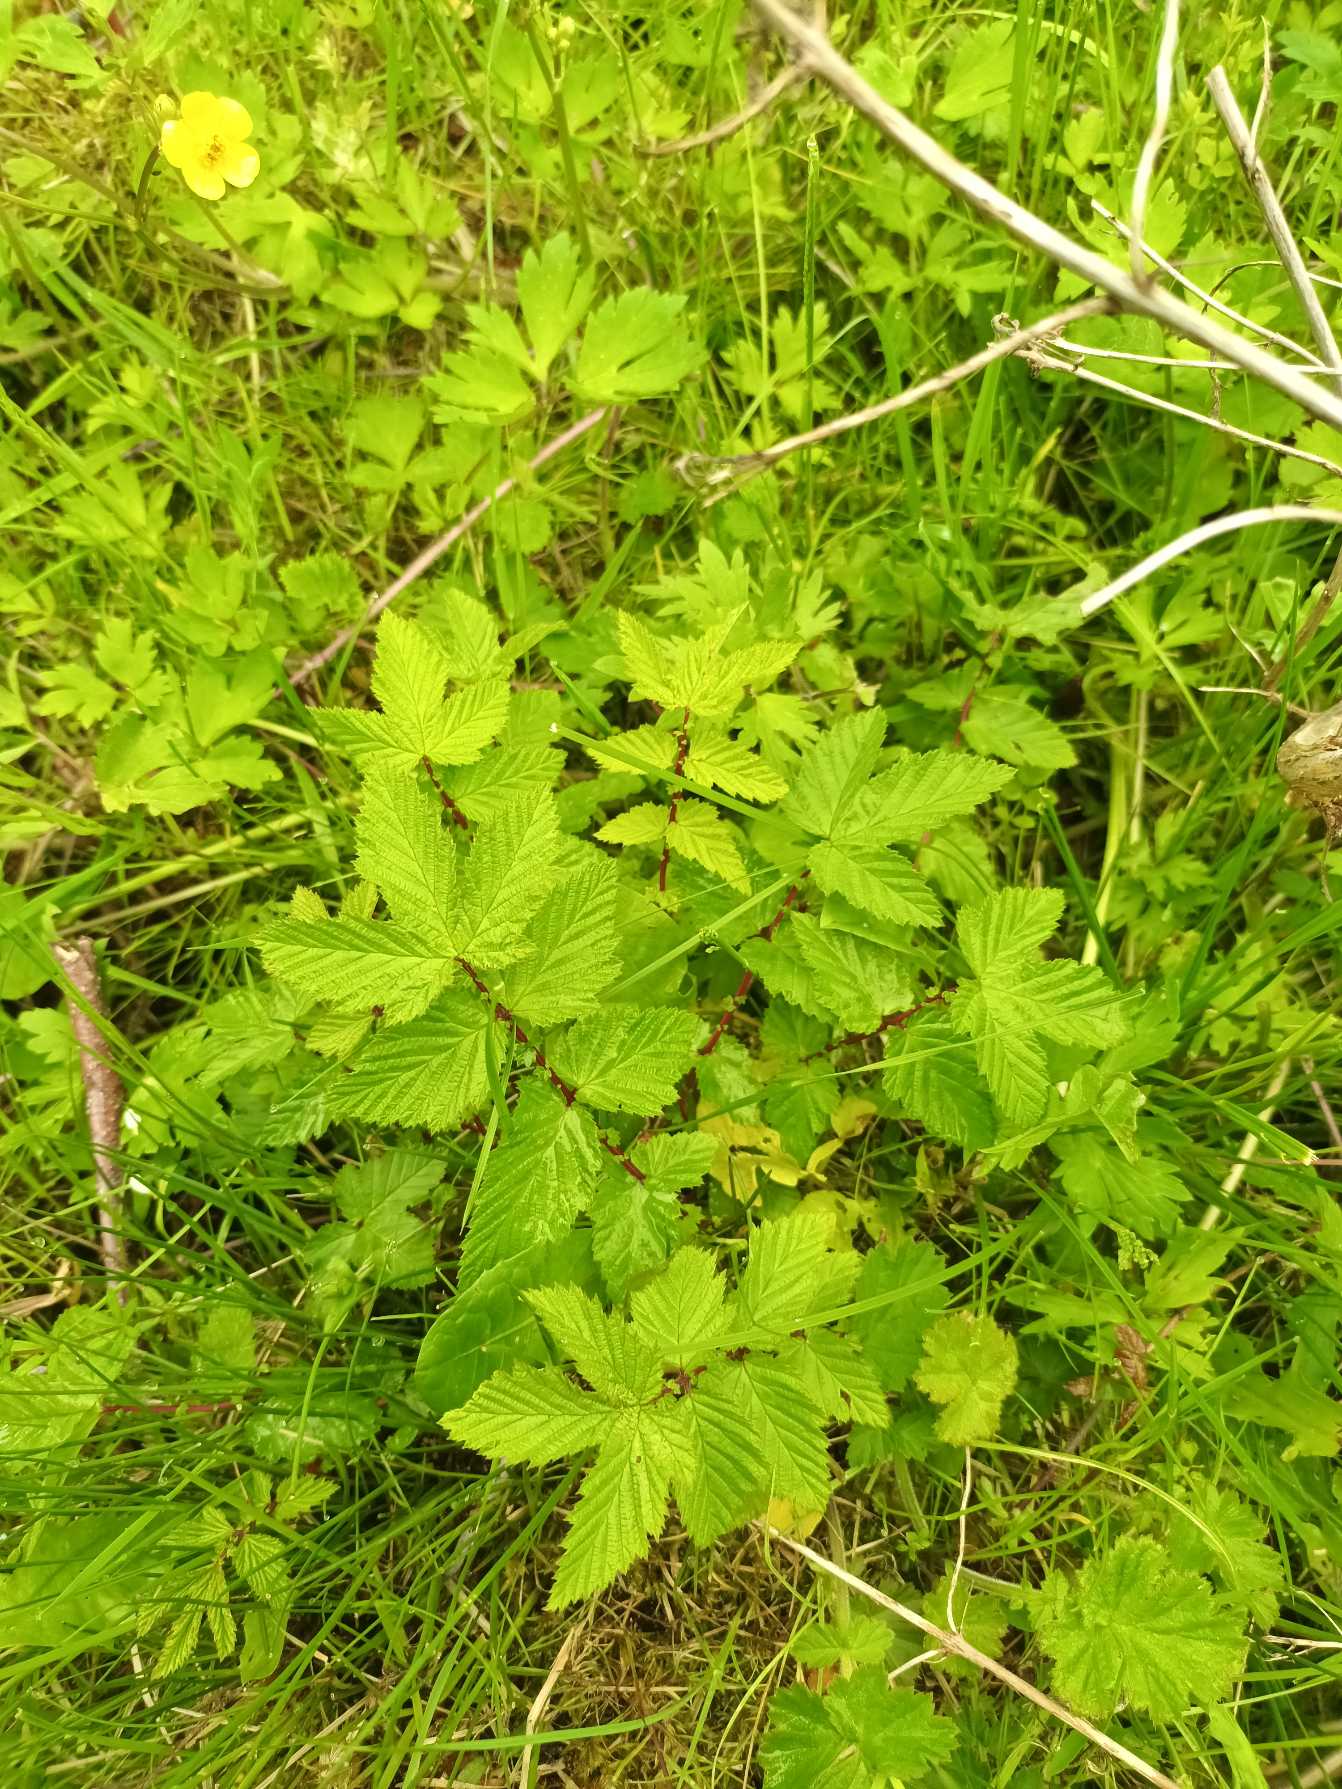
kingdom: Plantae
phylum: Tracheophyta
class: Magnoliopsida
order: Rosales
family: Rosaceae
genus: Filipendula
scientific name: Filipendula ulmaria
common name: Almindelig mjødurt
